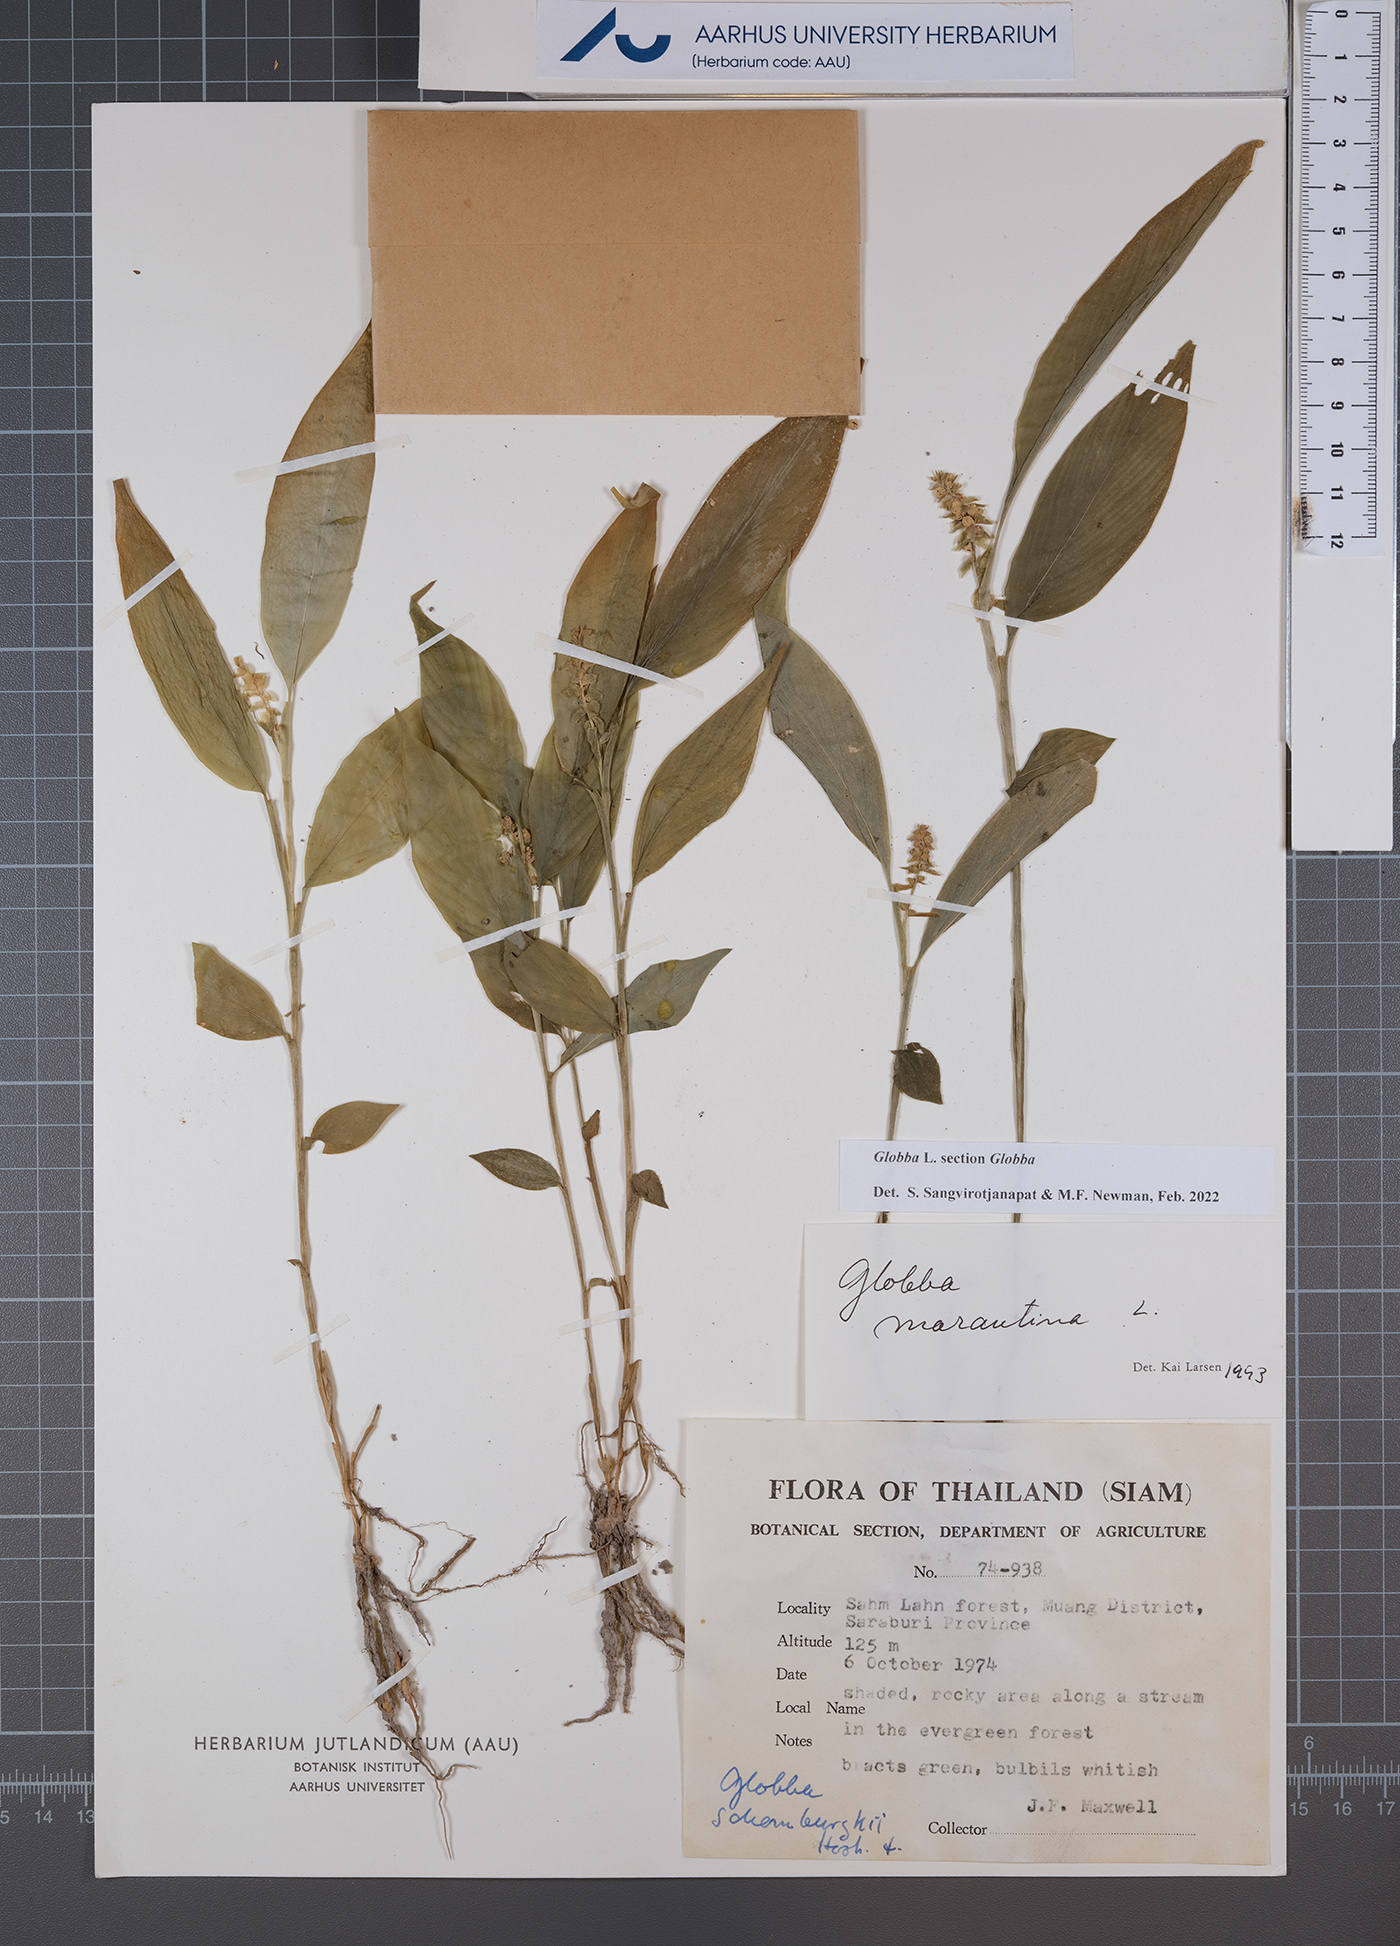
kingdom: Plantae
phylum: Tracheophyta
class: Liliopsida
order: Zingiberales
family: Zingiberaceae
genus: Globba
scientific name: Globba
